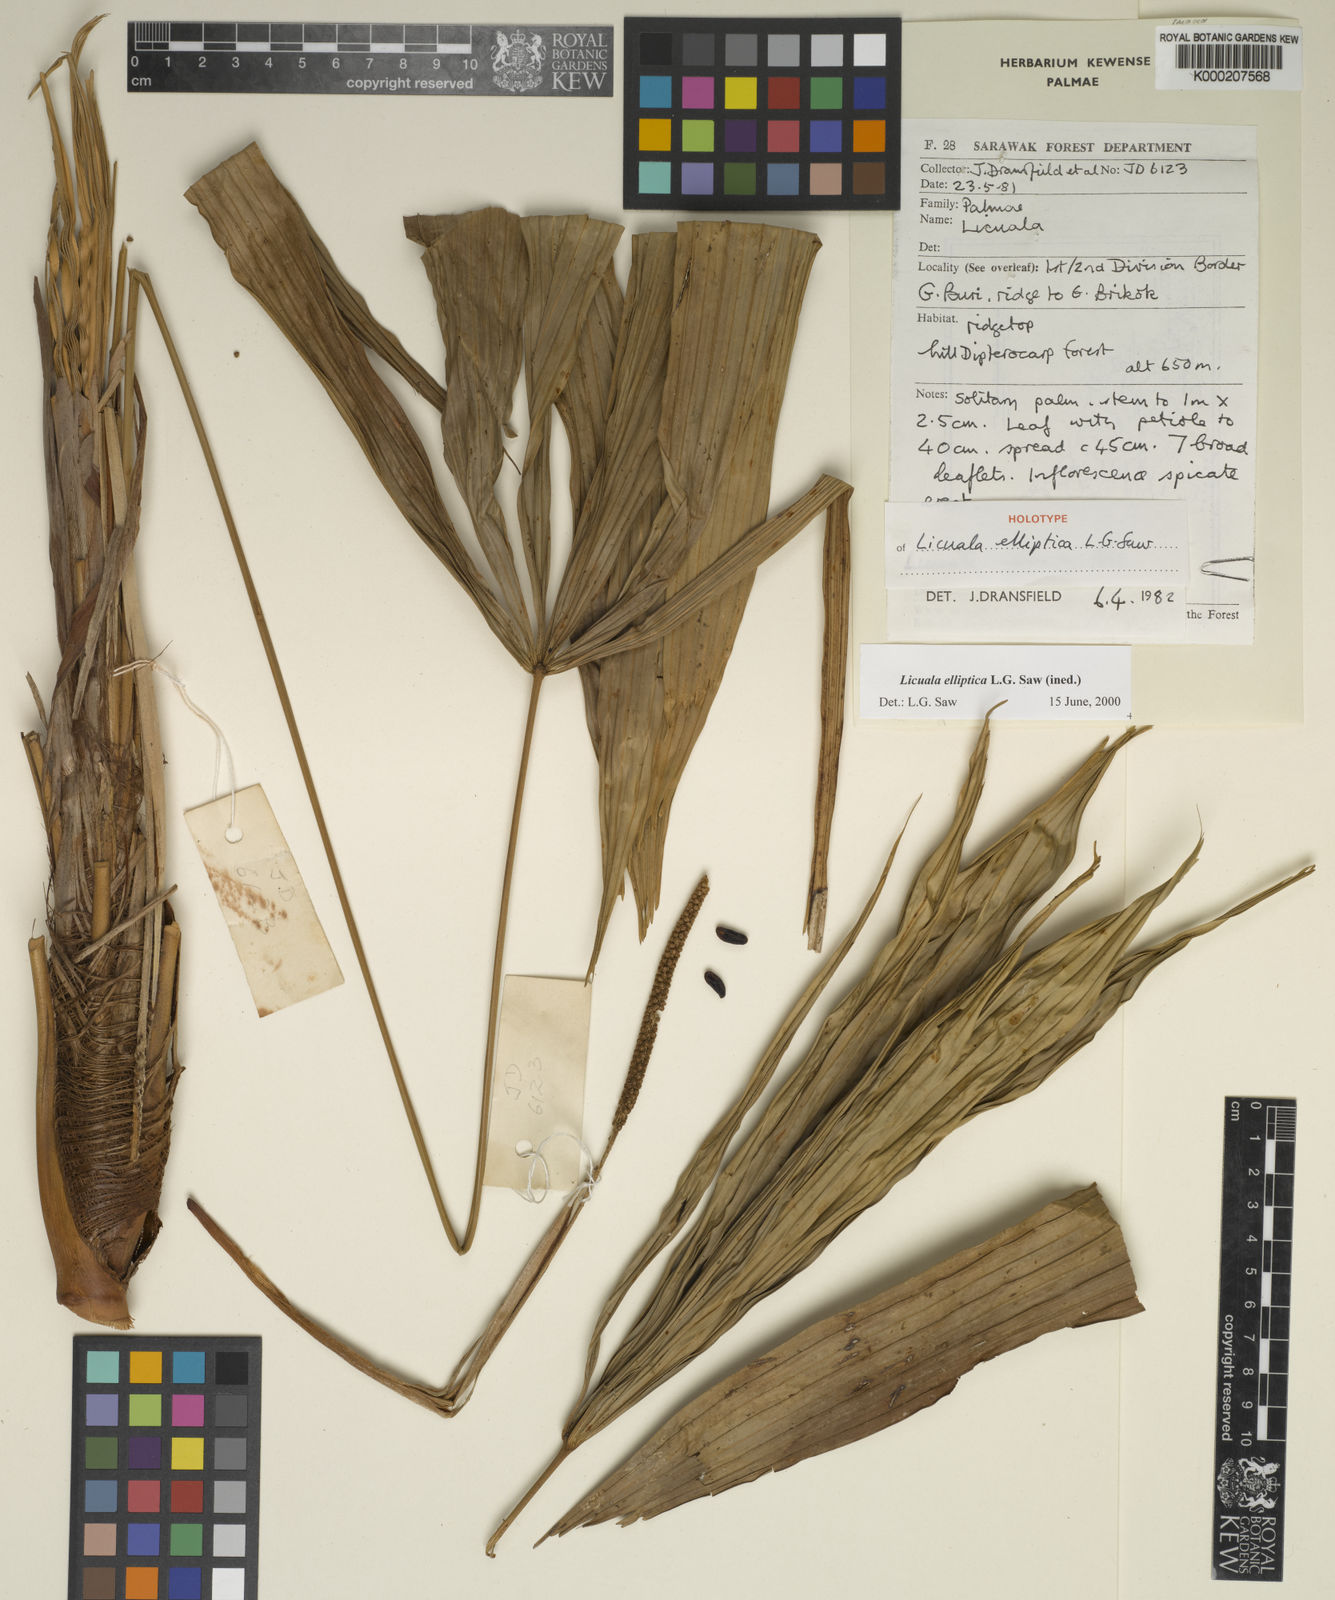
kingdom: Plantae
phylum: Tracheophyta
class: Liliopsida
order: Arecales
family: Arecaceae
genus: Licuala
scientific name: Licuala elliptica
